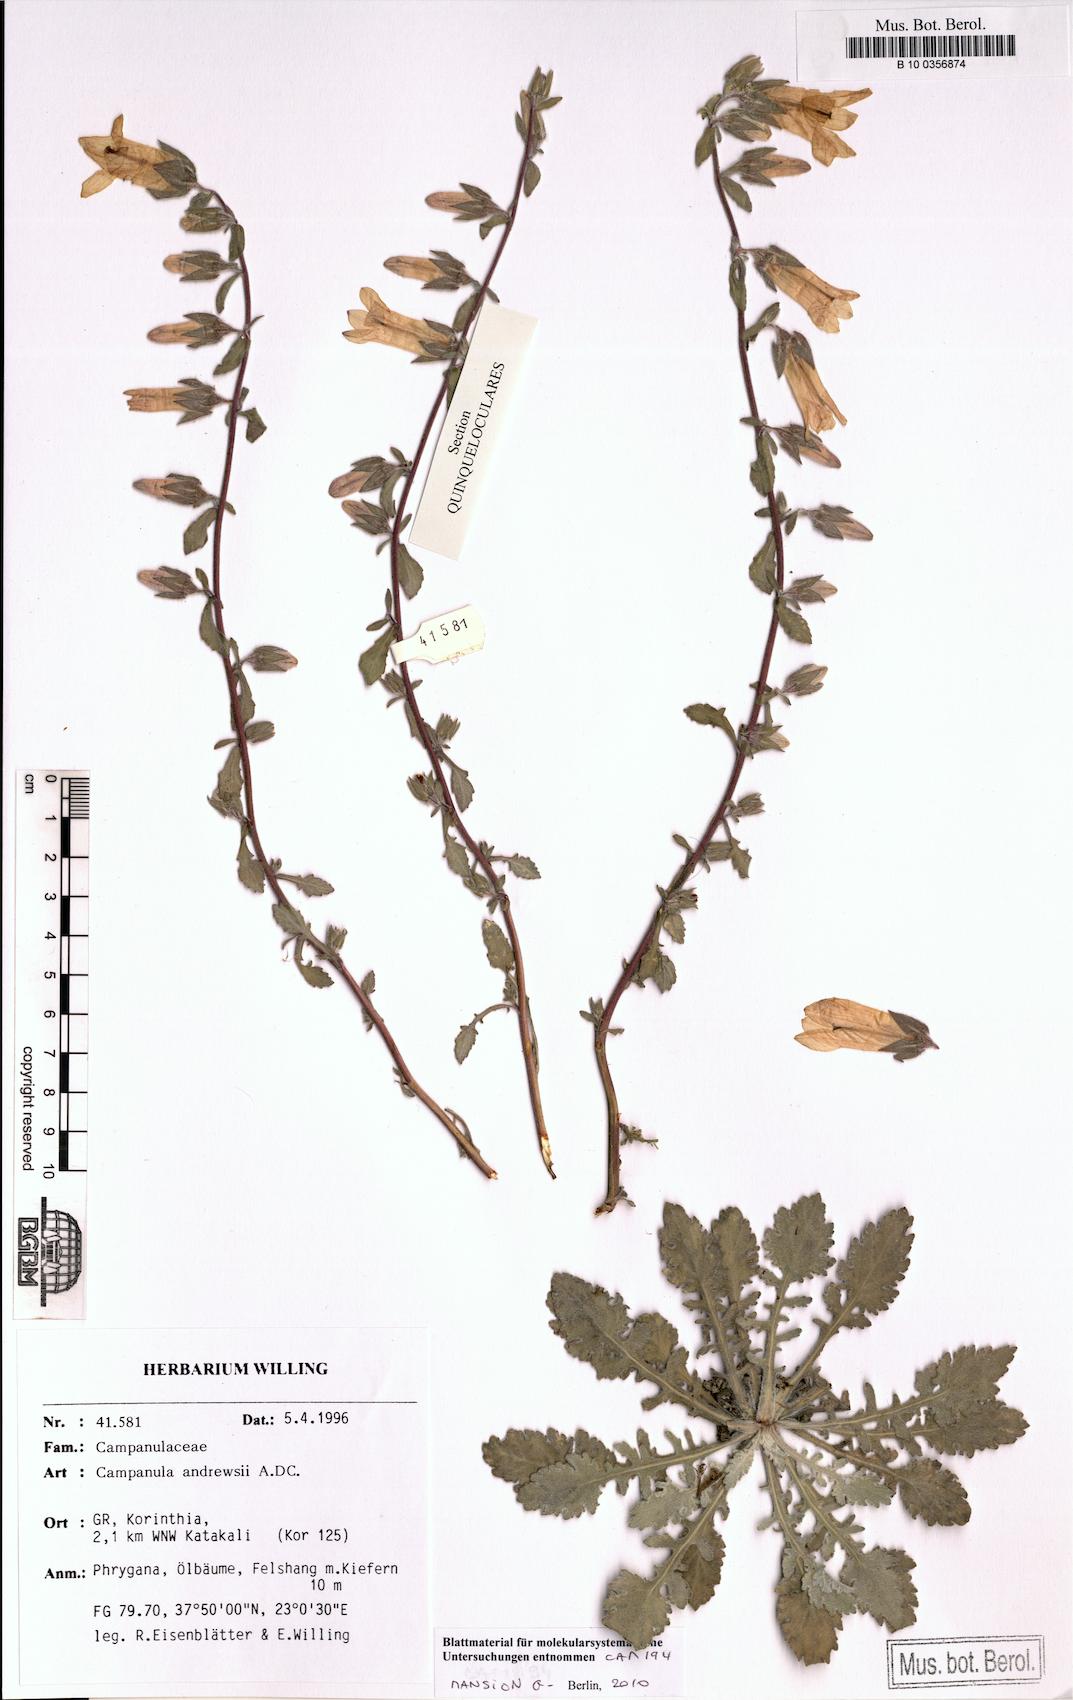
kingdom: Plantae
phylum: Tracheophyta
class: Magnoliopsida
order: Asterales
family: Campanulaceae
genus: Campanula
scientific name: Campanula andrewsii
